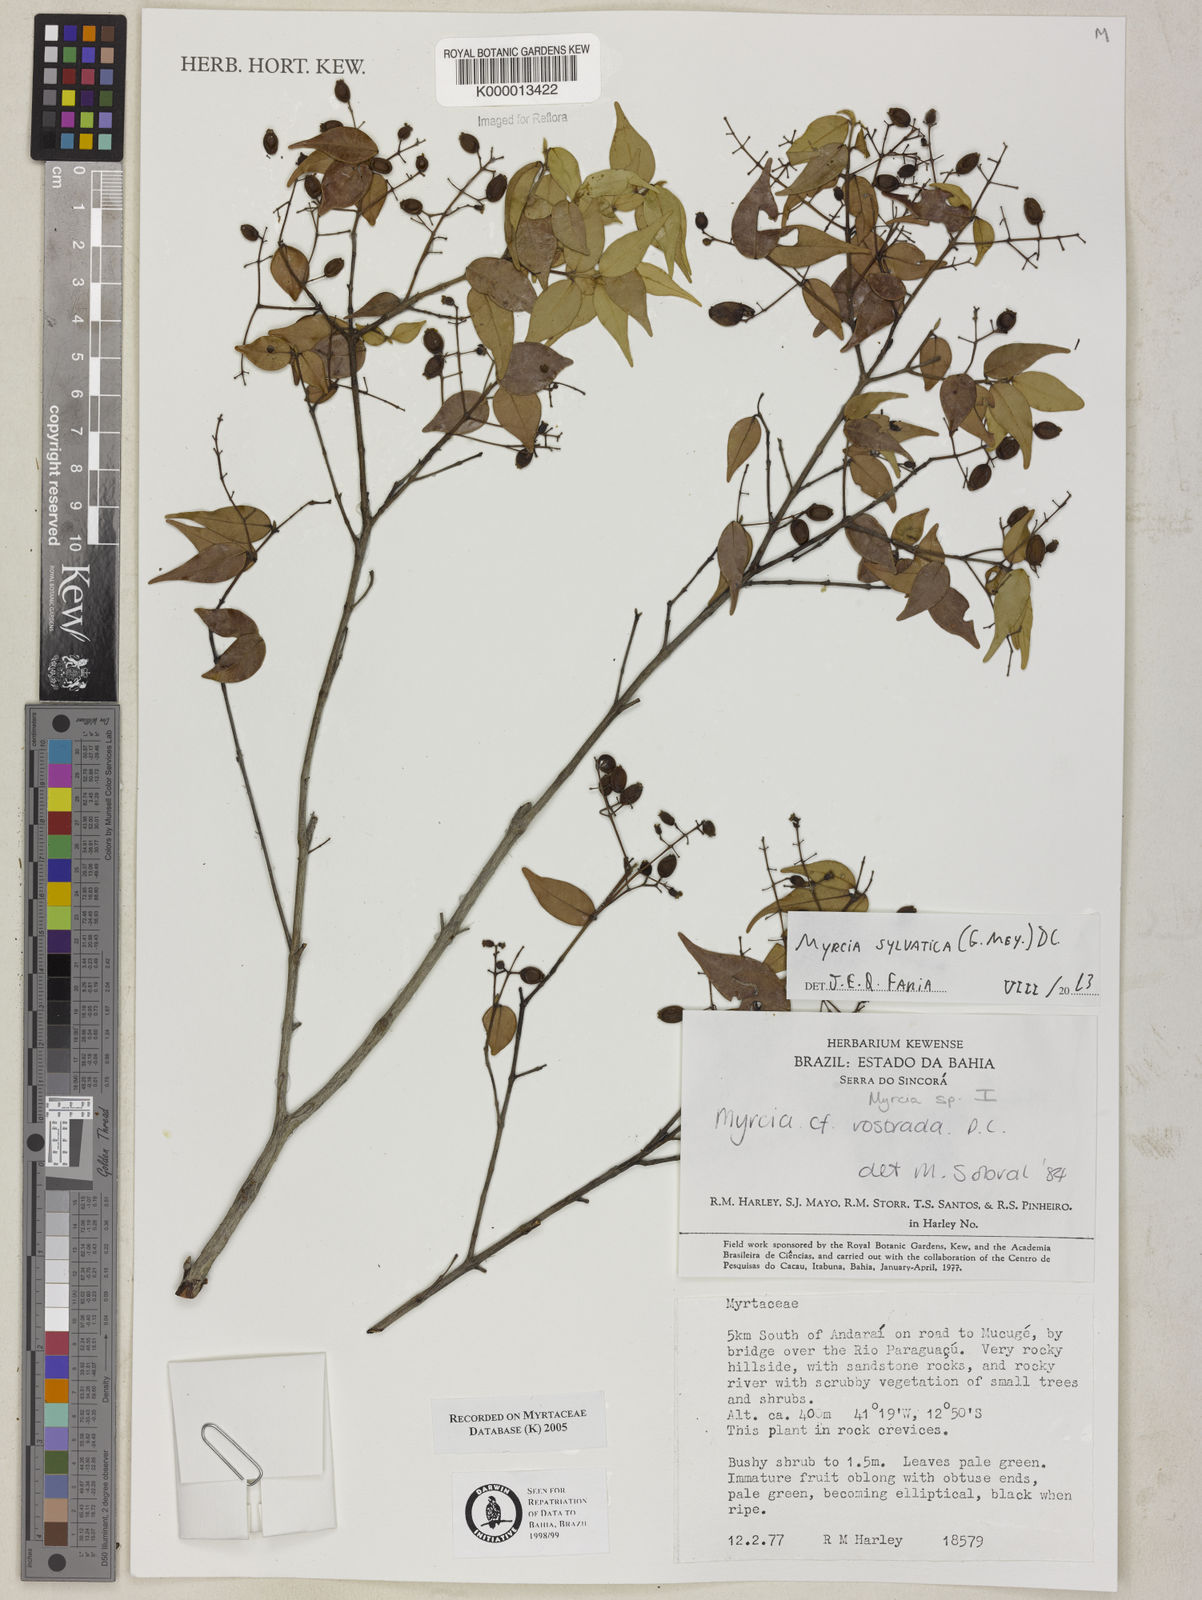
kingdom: Plantae
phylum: Tracheophyta
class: Magnoliopsida
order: Myrtales
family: Myrtaceae
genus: Myrcia
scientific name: Myrcia
